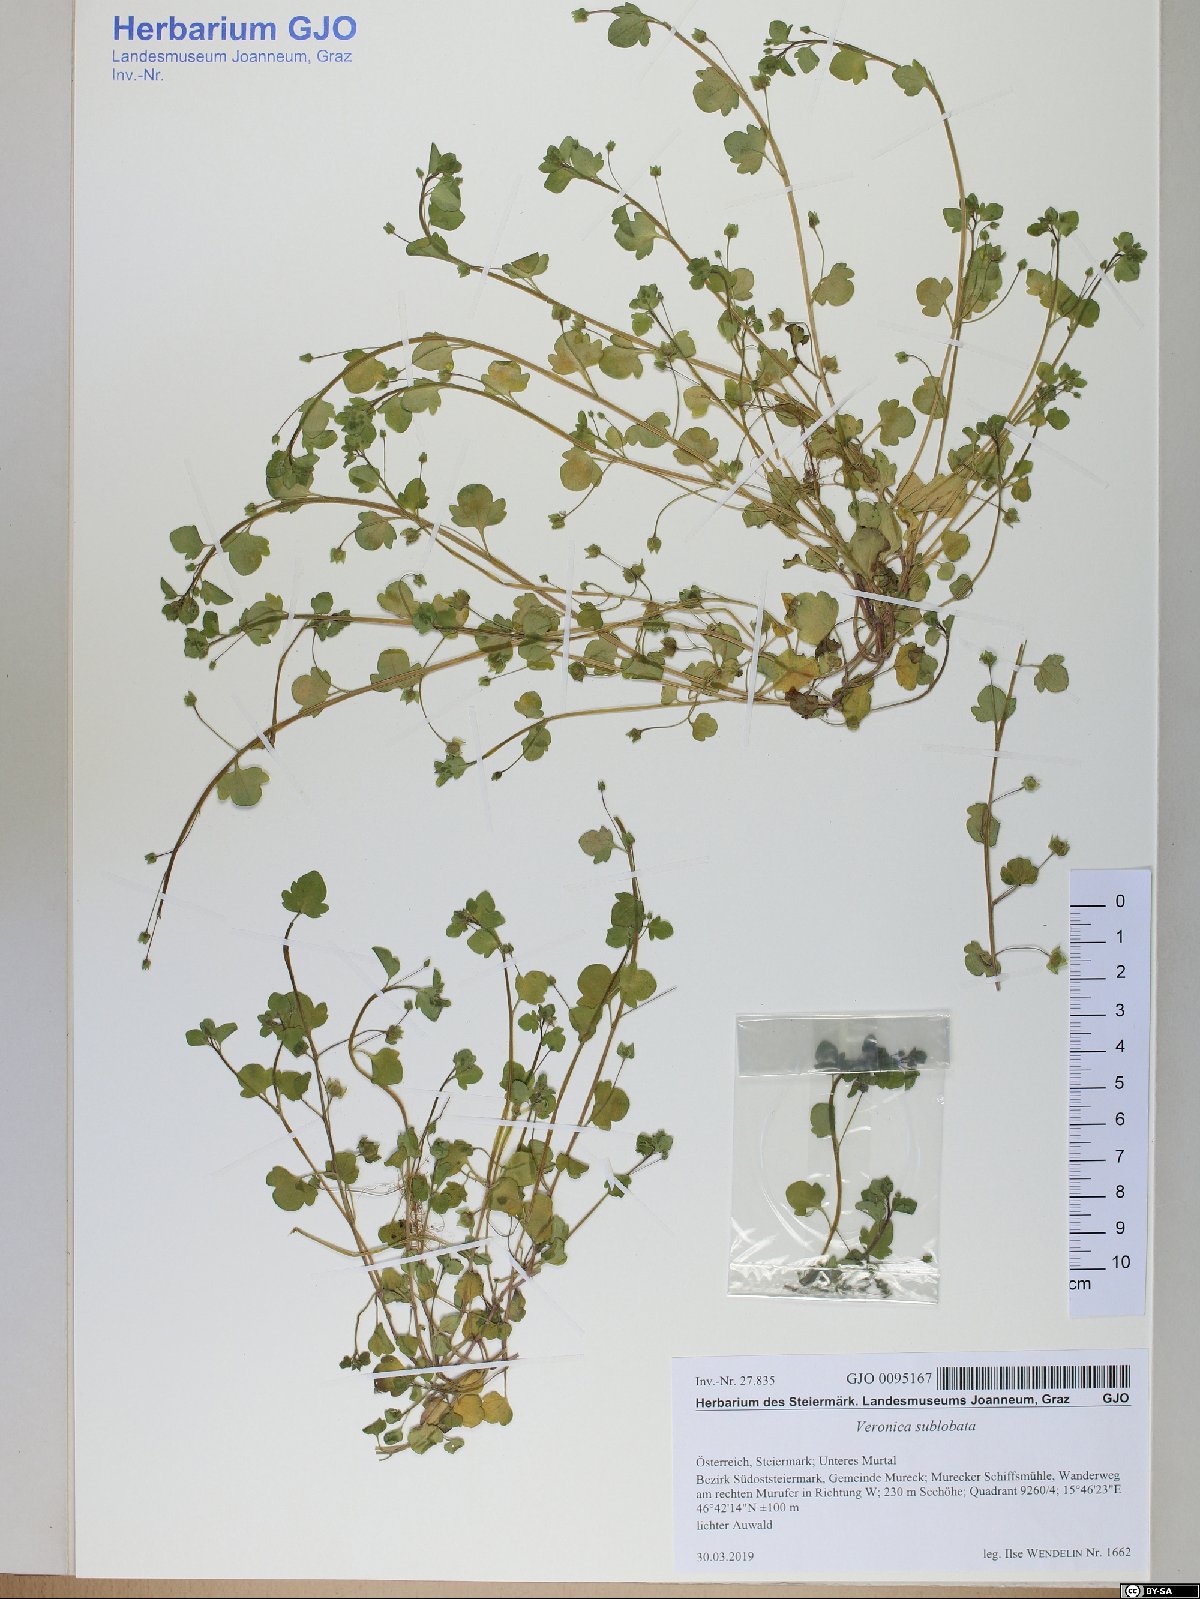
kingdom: Plantae
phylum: Tracheophyta
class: Magnoliopsida
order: Lamiales
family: Plantaginaceae
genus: Veronica
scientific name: Veronica sublobata
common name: False ivy-leaved speedwell
